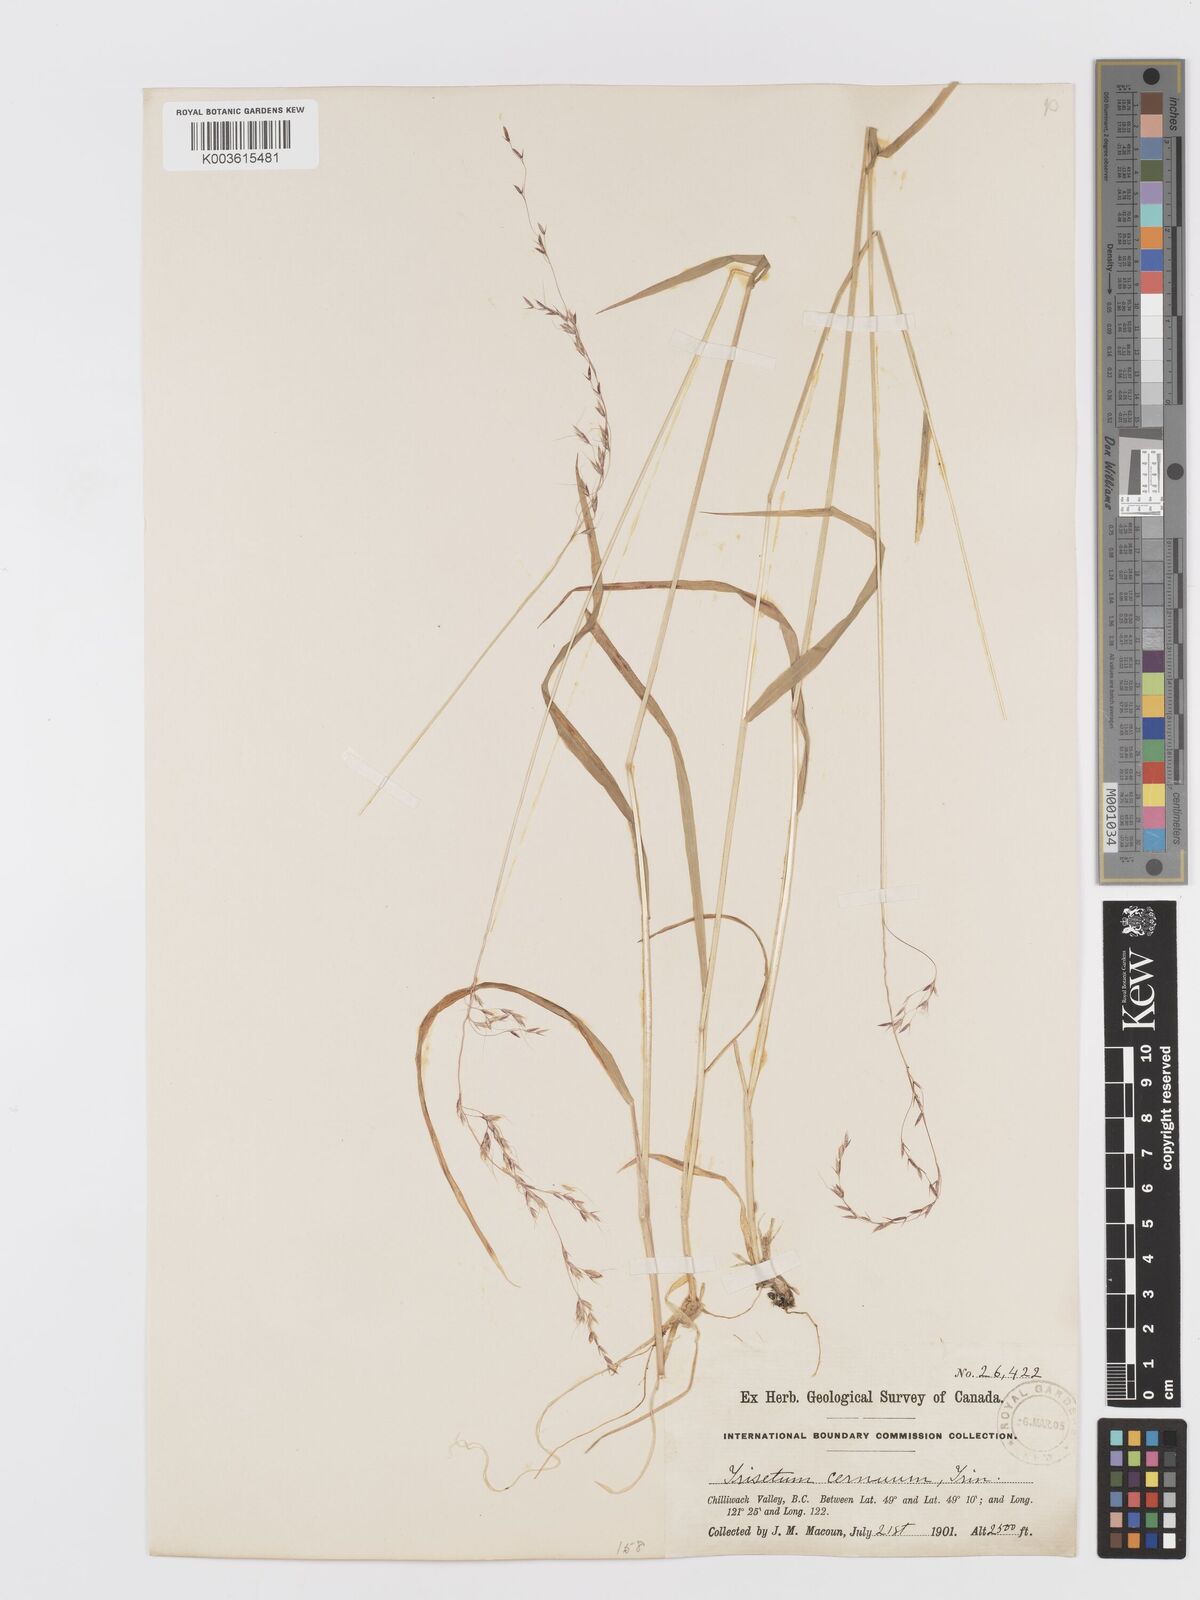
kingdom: Plantae
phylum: Tracheophyta
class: Liliopsida
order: Poales
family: Poaceae
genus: Graphephorum
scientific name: Graphephorum cernuum
